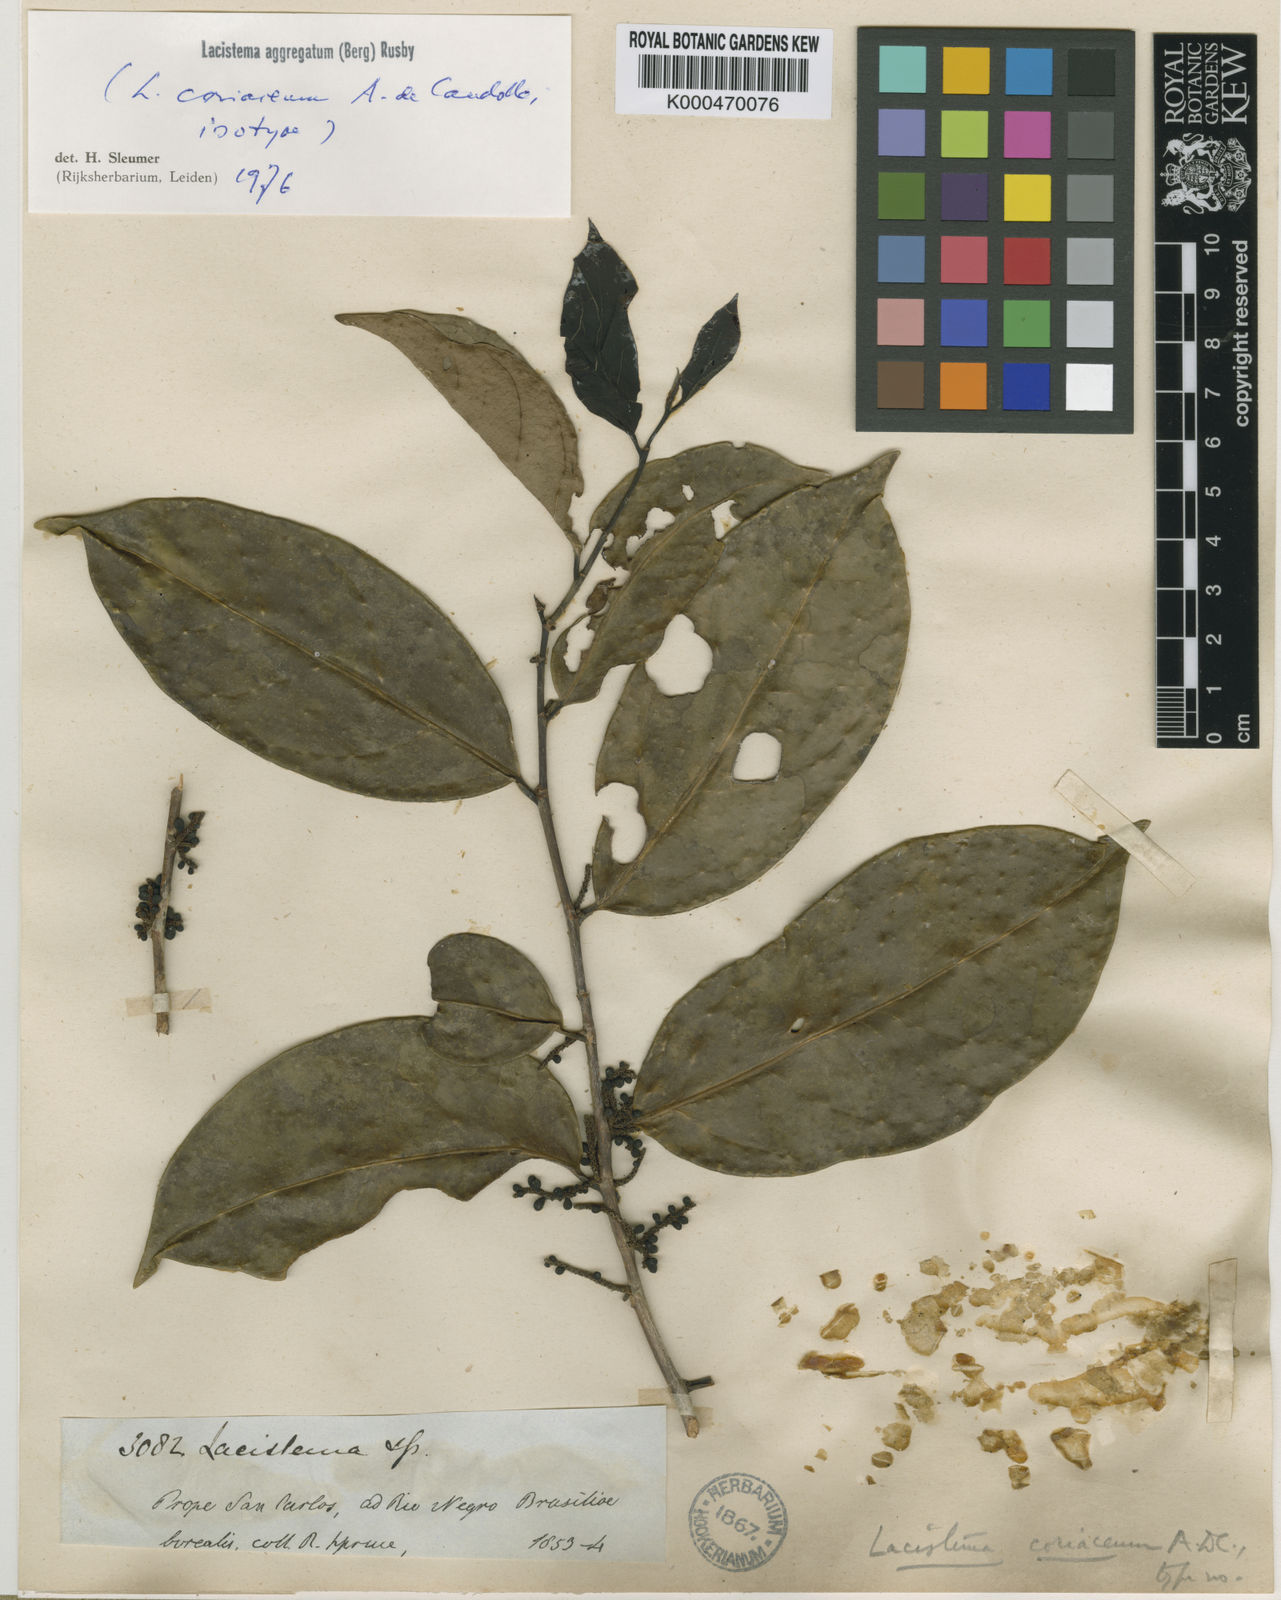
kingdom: Plantae
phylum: Tracheophyta
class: Magnoliopsida
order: Malpighiales
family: Lacistemataceae
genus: Lacistema
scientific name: Lacistema aggregatum
